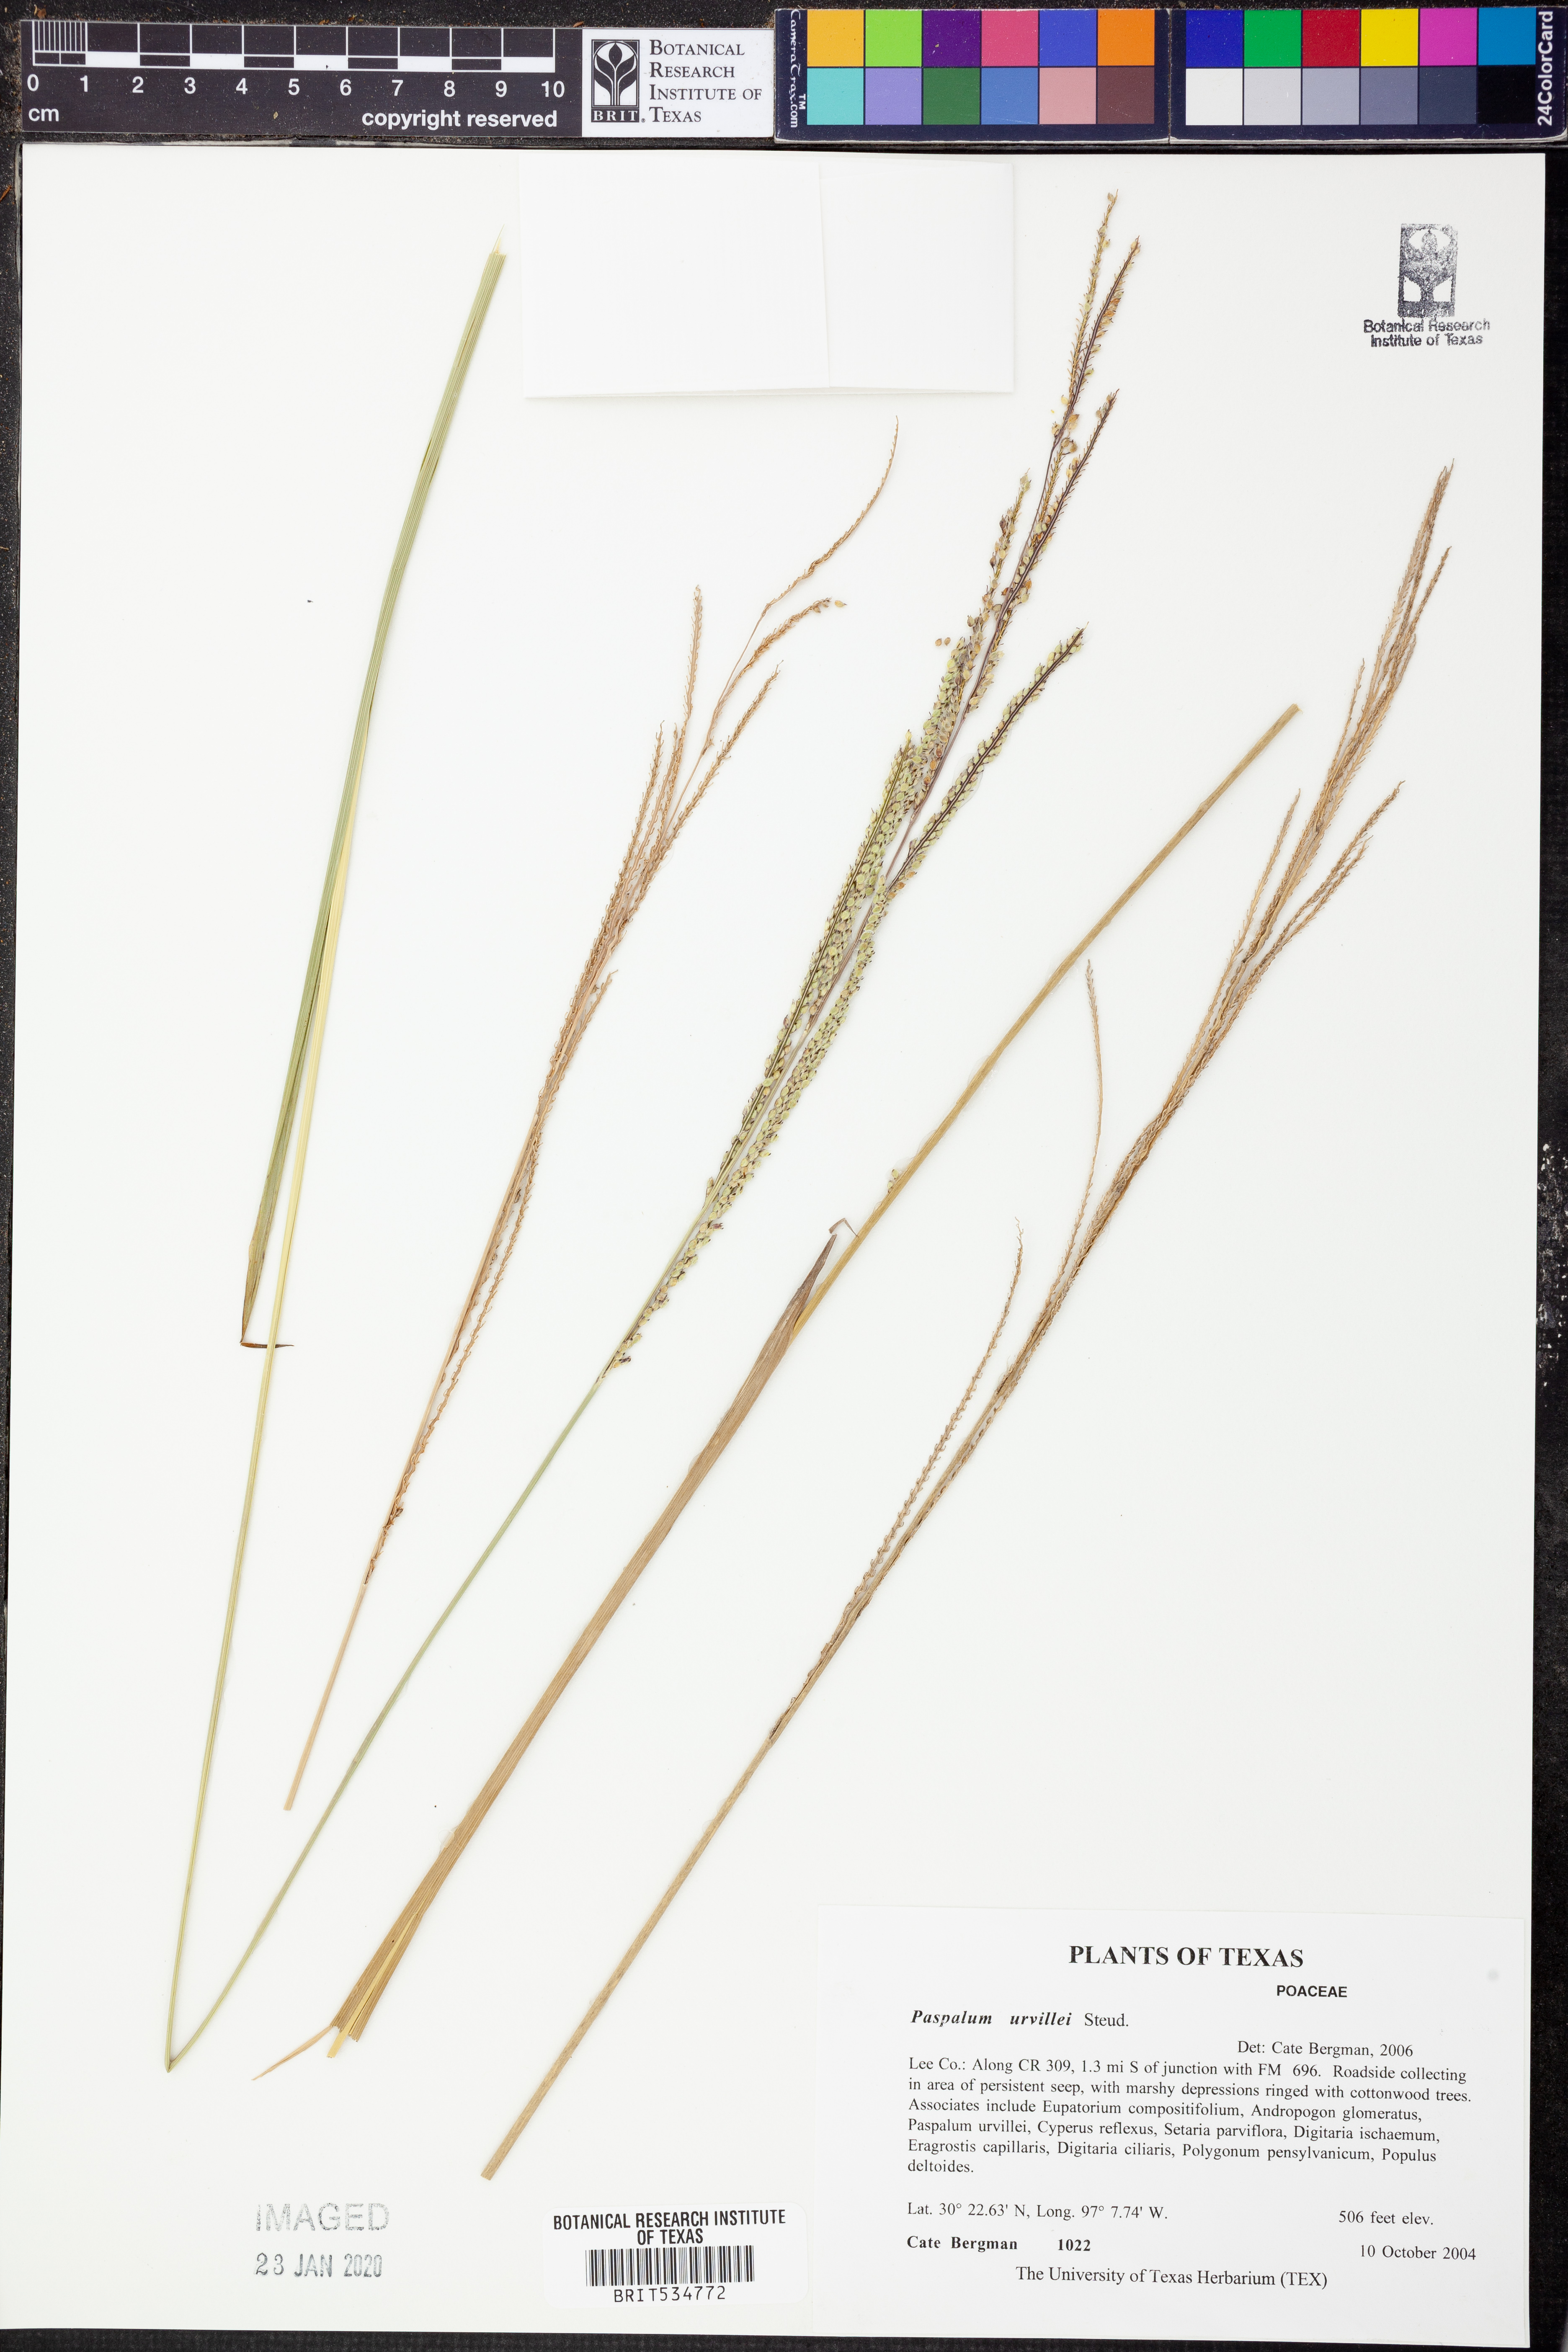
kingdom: Plantae
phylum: Tracheophyta
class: Liliopsida
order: Poales
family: Poaceae
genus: Paspalum
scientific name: Paspalum urvillei
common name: Vasey's grass
